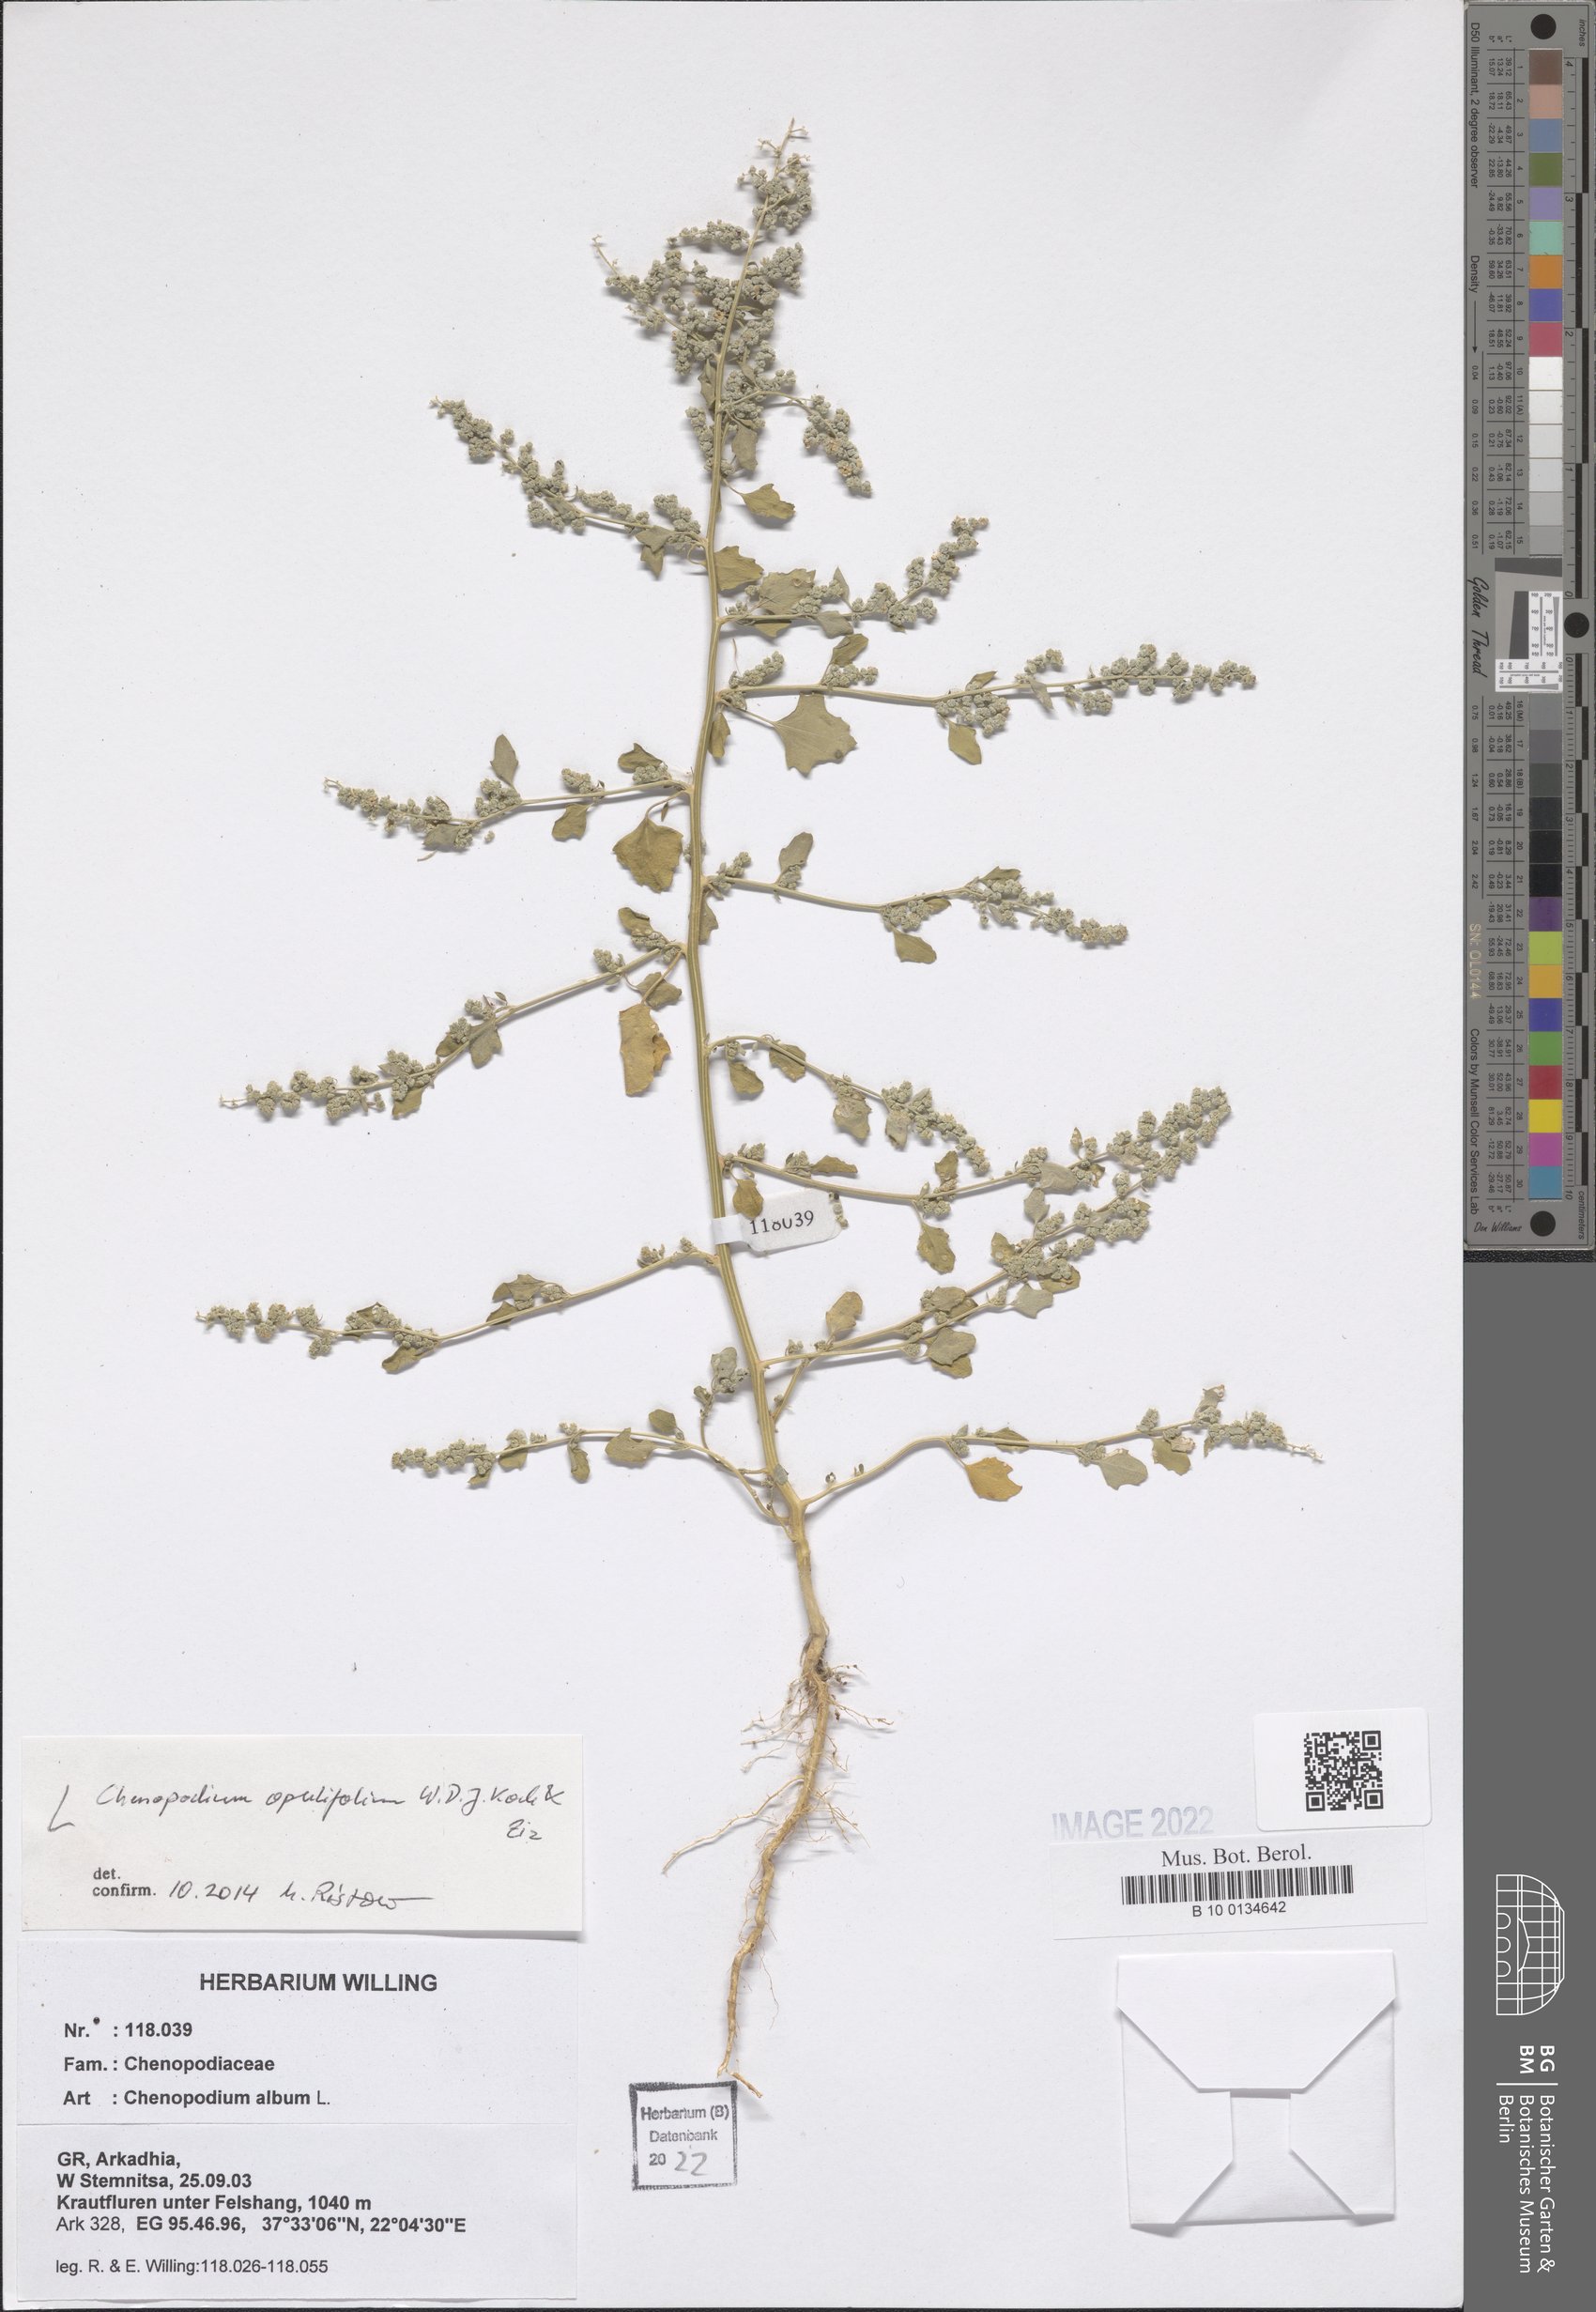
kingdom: Plantae
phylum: Tracheophyta
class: Magnoliopsida
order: Caryophyllales
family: Amaranthaceae
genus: Chenopodium
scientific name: Chenopodium opulifolium
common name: Grey goosefoot
